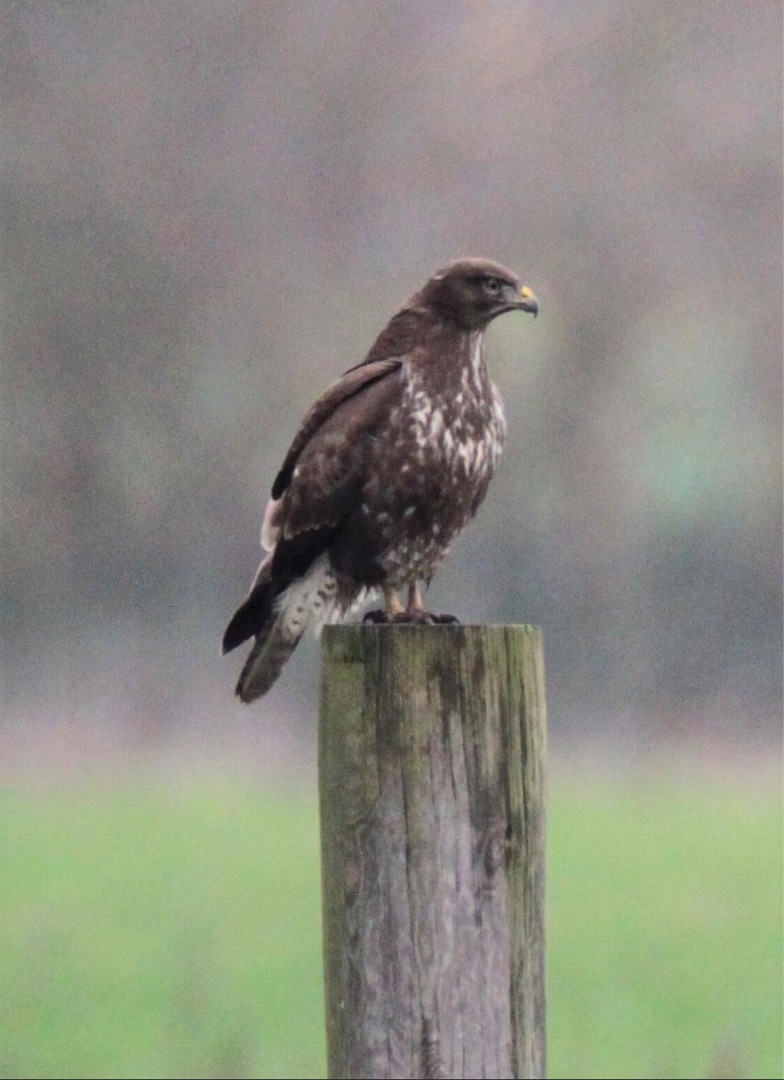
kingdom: Animalia
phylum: Chordata
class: Aves
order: Accipitriformes
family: Accipitridae
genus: Buteo
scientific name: Buteo buteo
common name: Musvåge
